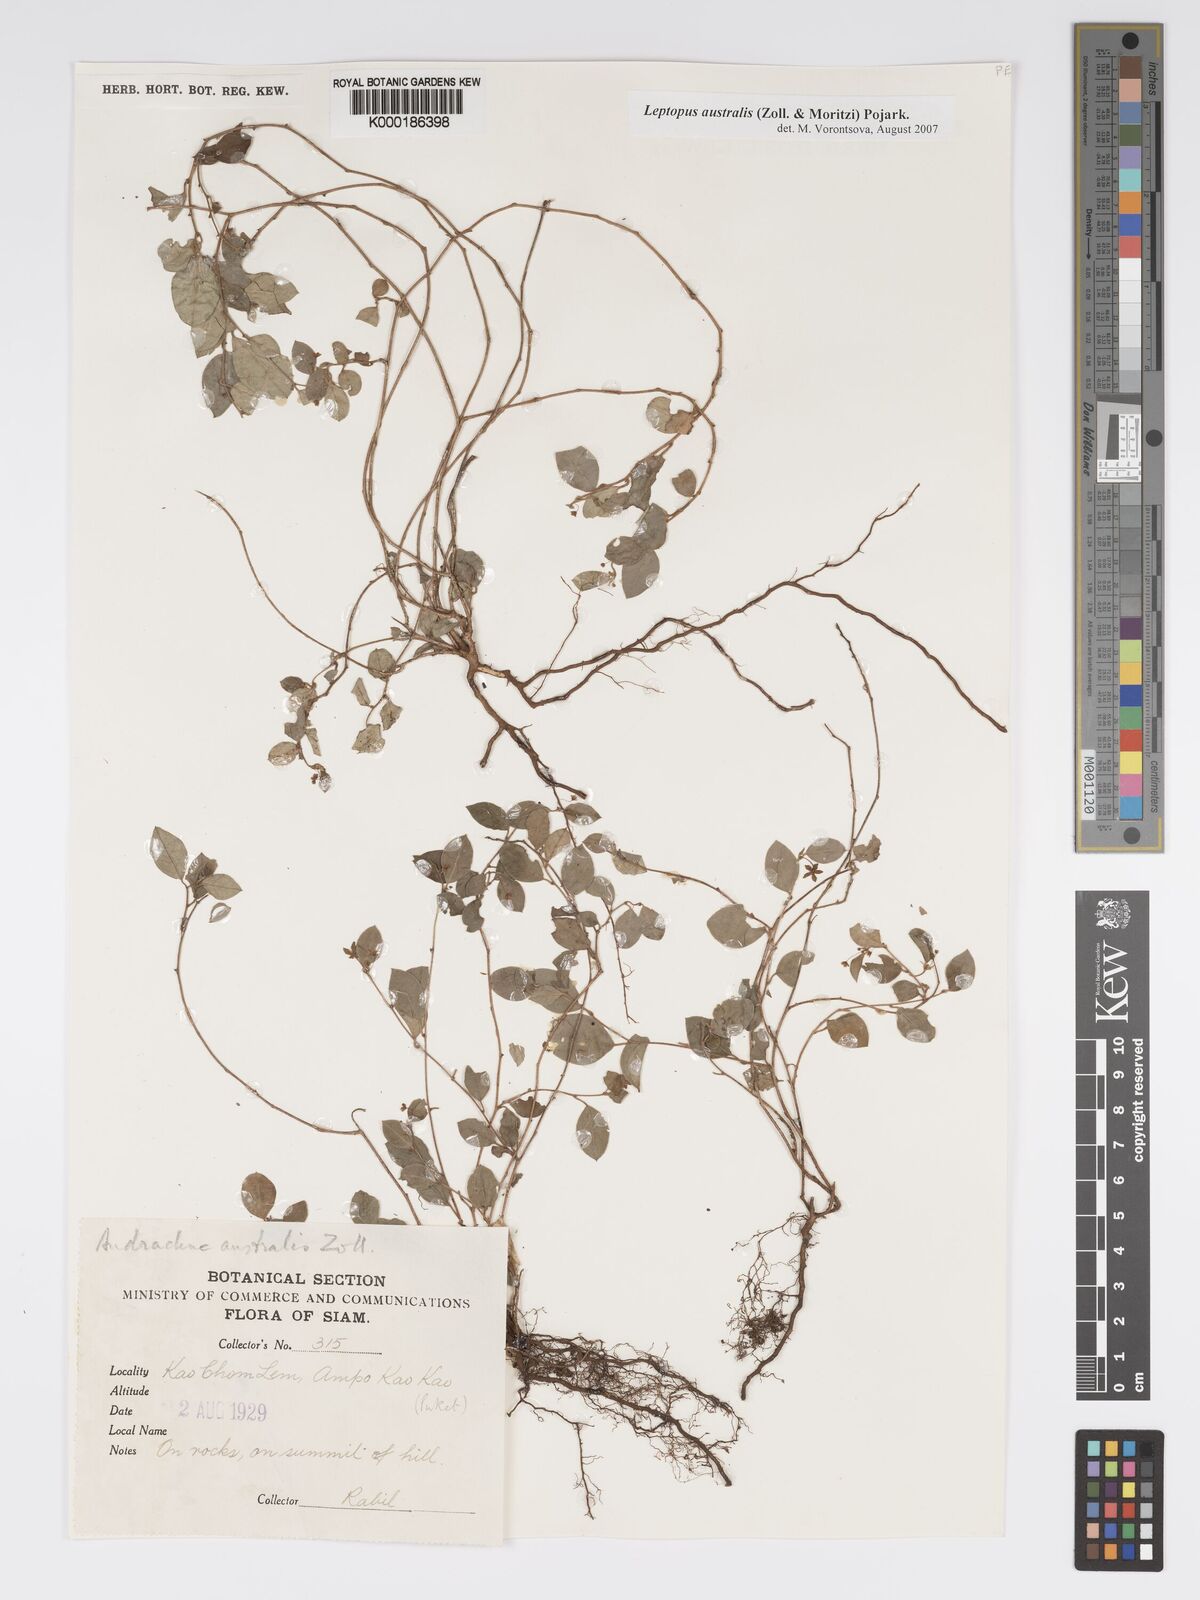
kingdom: Plantae
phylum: Tracheophyta
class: Magnoliopsida
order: Malpighiales
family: Phyllanthaceae
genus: Andrachne
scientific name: Andrachne
